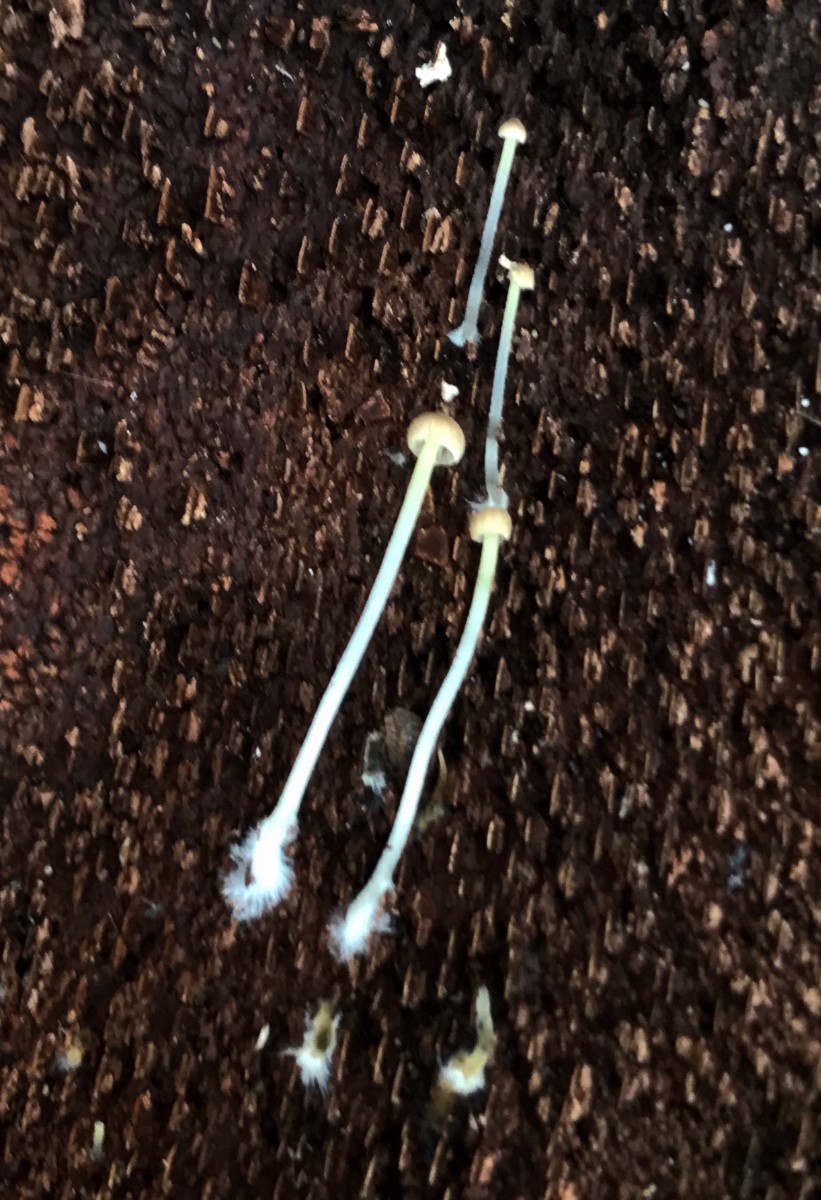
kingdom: Fungi
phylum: Basidiomycota
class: Agaricomycetes
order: Agaricales
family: Porotheleaceae
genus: Phloeomana
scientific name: Phloeomana speirea
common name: kvist-huesvamp
